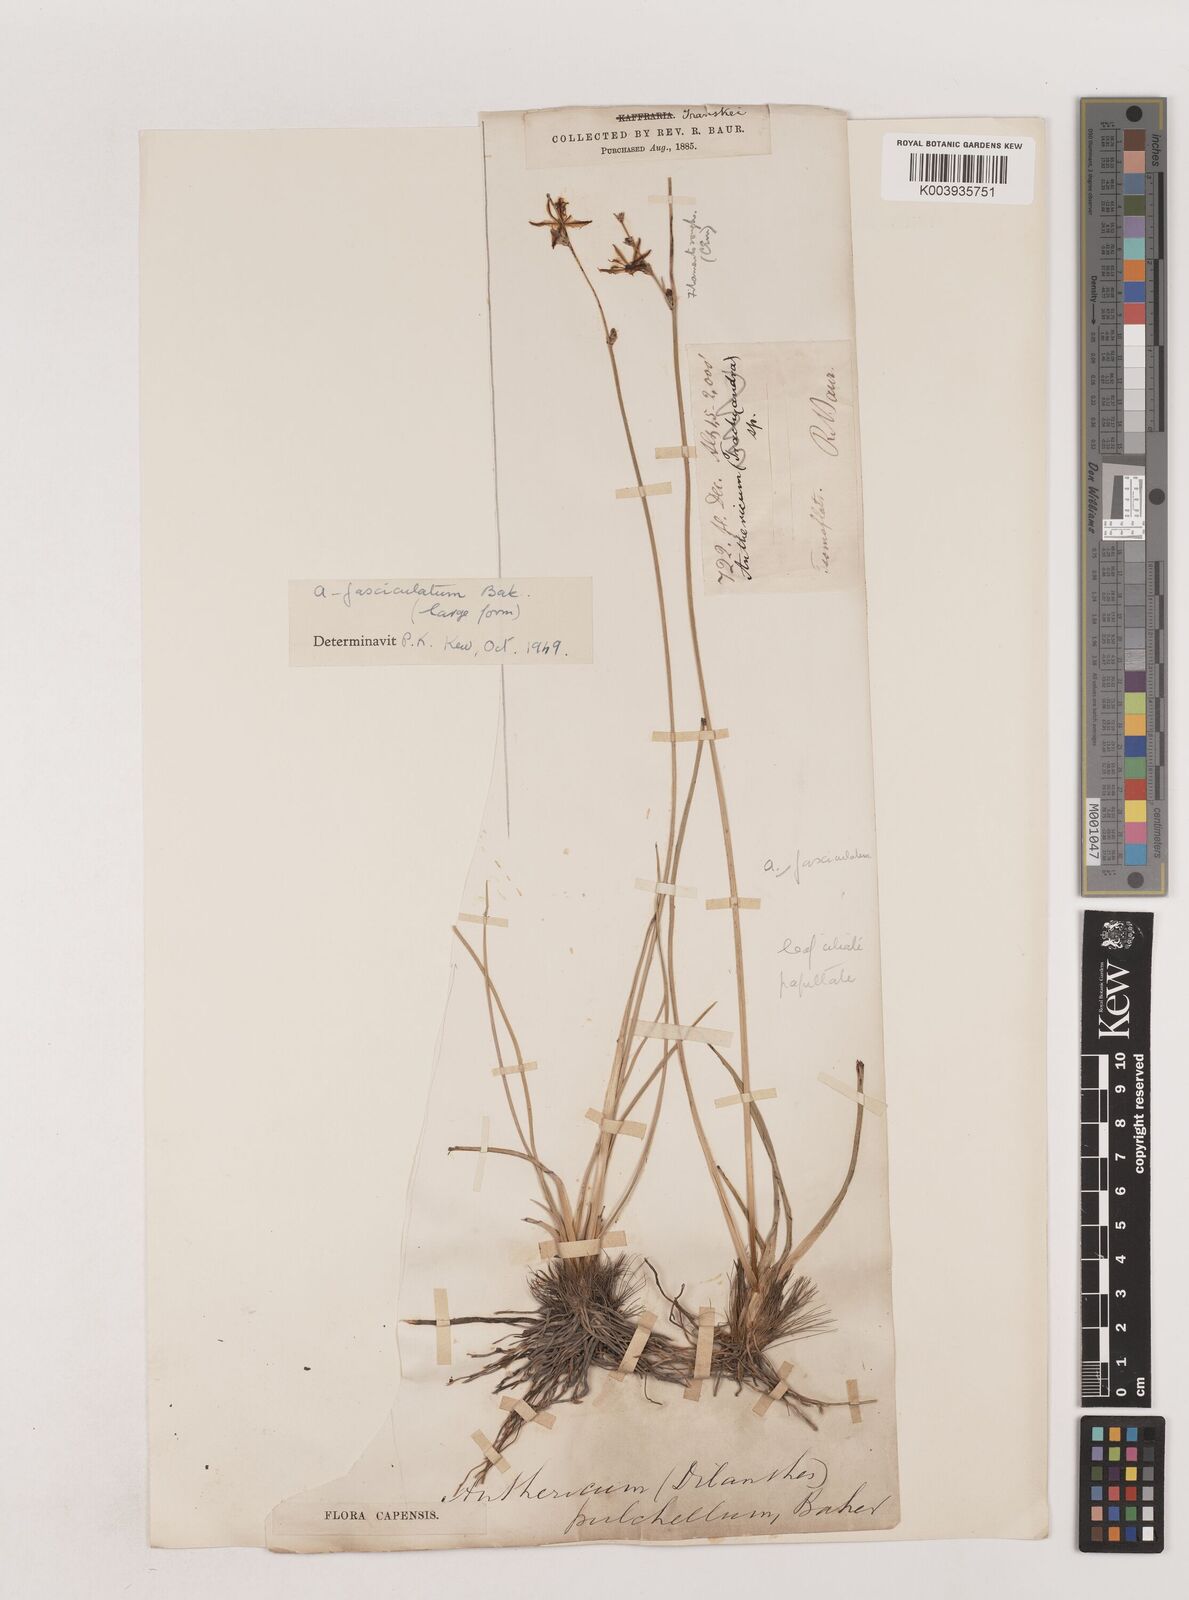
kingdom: Plantae
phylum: Tracheophyta
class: Liliopsida
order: Asparagales
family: Asparagaceae
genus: Chlorophytum
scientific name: Chlorophytum fasciculatum
